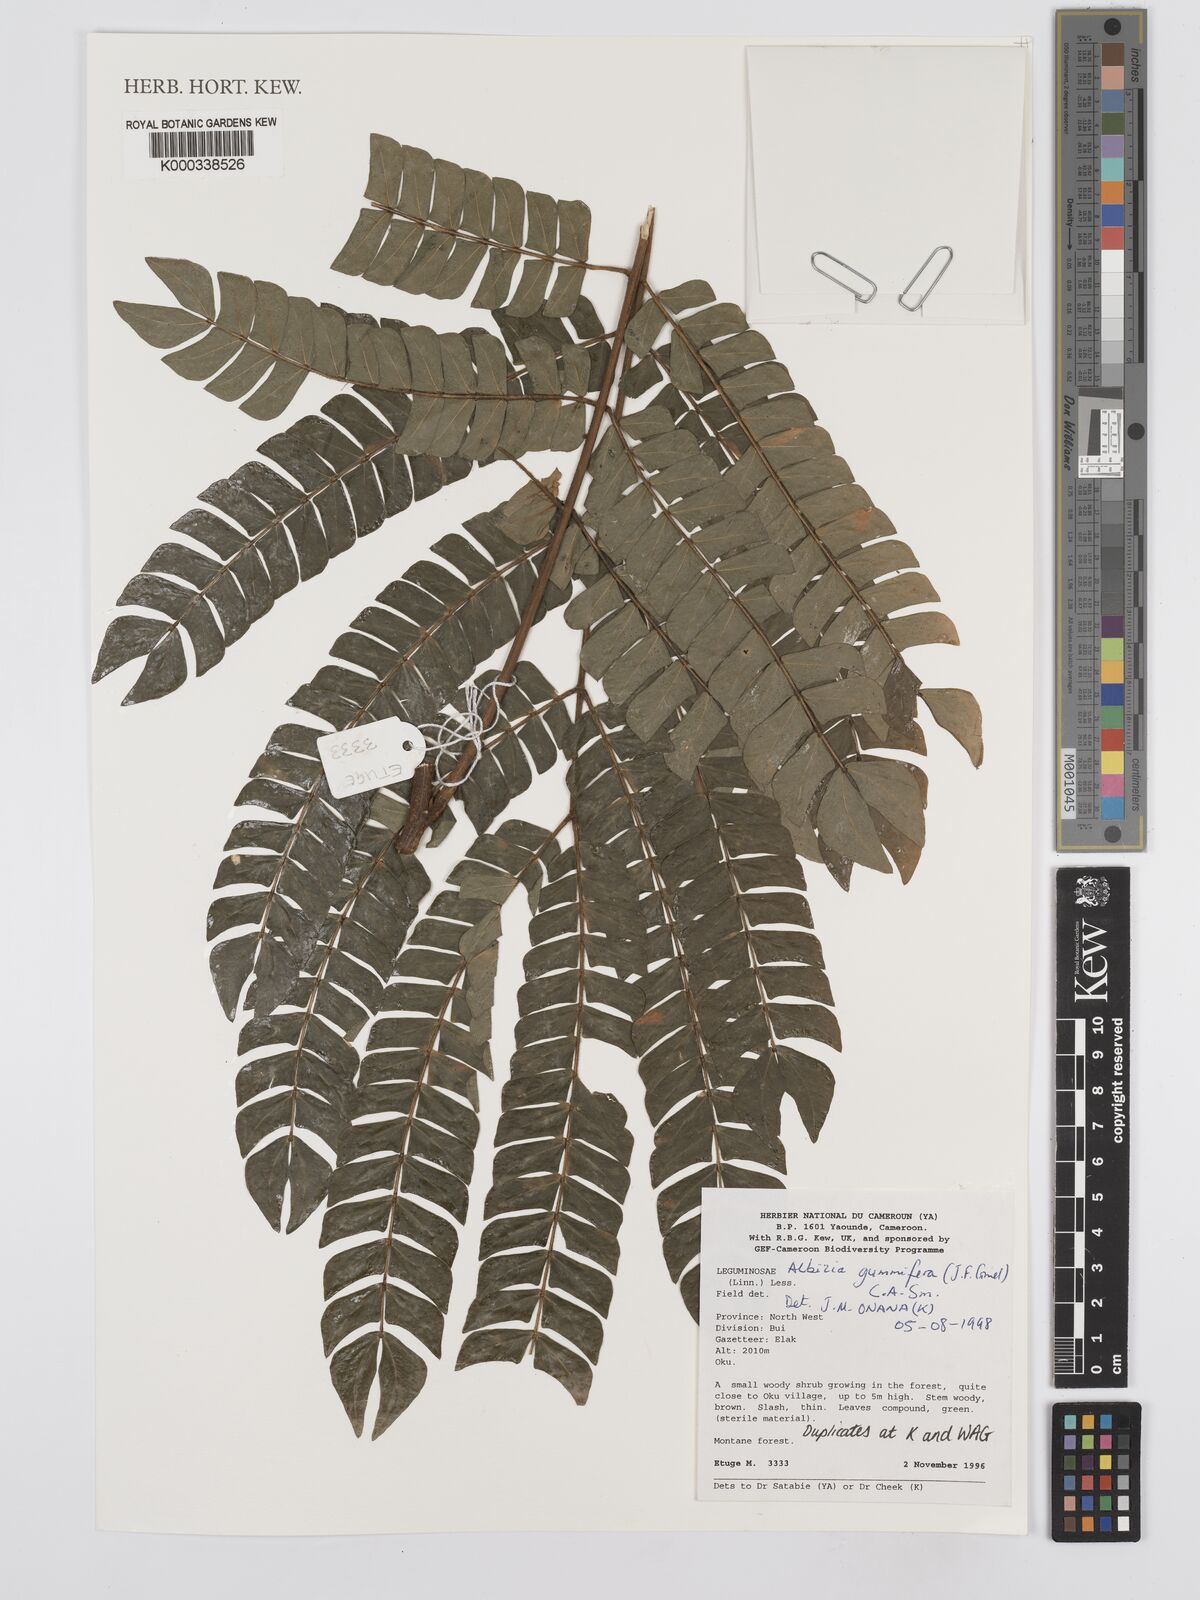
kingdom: Plantae
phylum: Tracheophyta
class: Magnoliopsida
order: Fabales
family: Fabaceae
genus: Albizia
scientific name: Albizia gummifera
